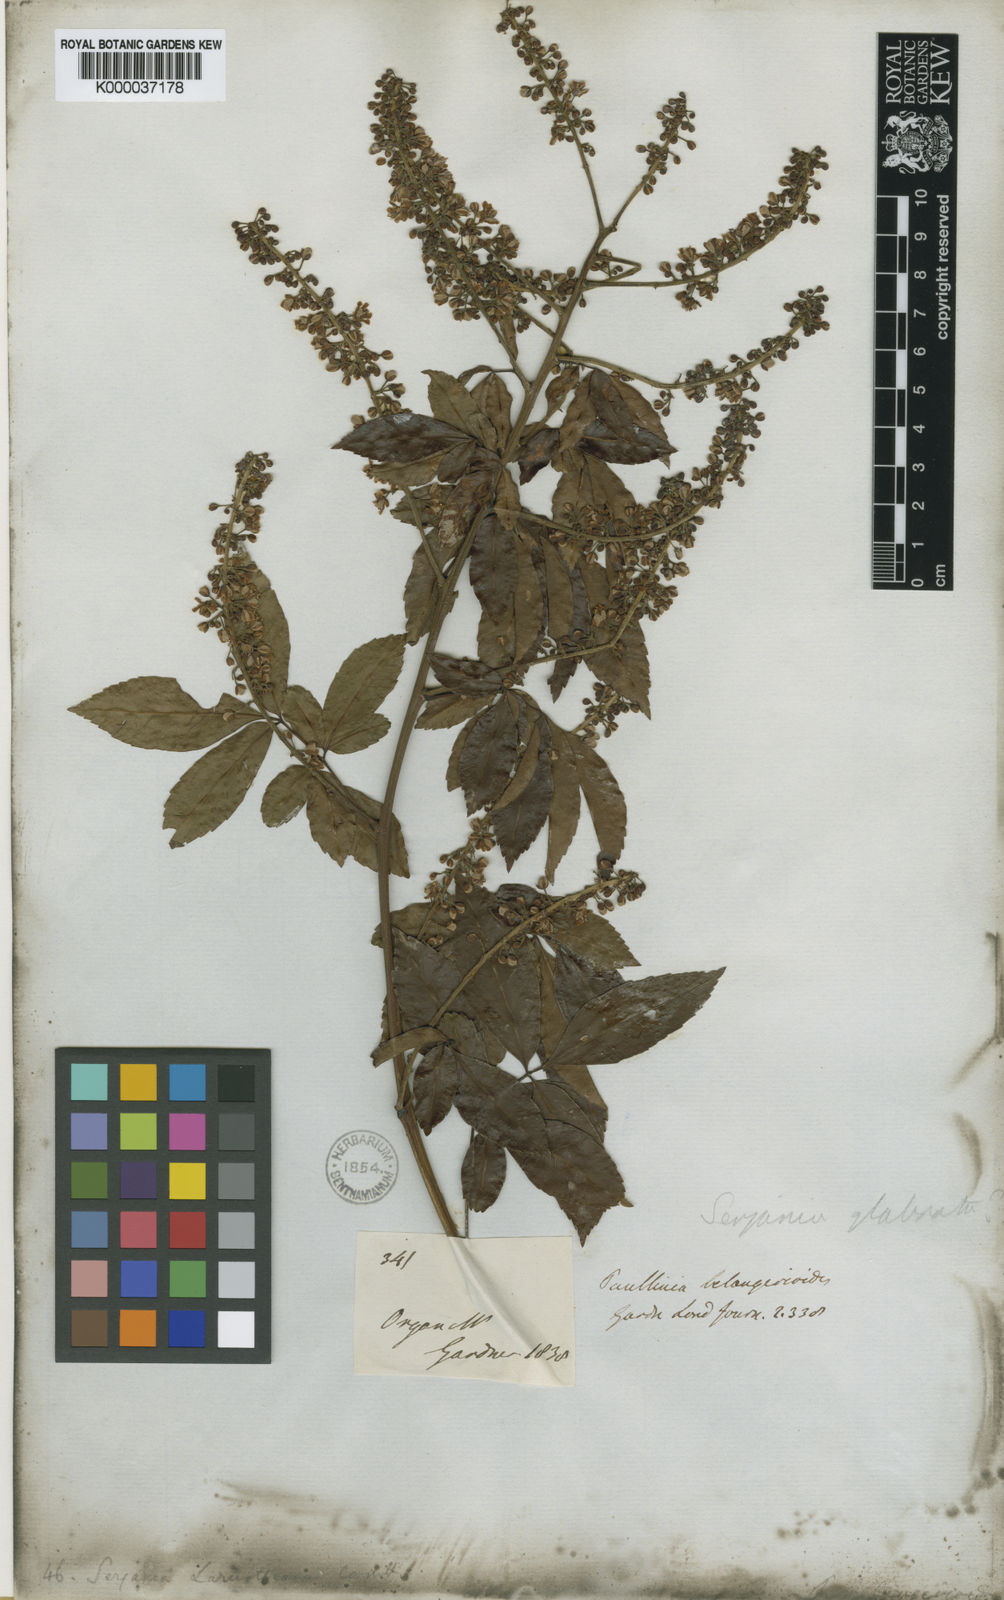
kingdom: Plantae
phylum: Tracheophyta
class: Magnoliopsida
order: Sapindales
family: Sapindaceae
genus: Serjania
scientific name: Serjania laruotteana
